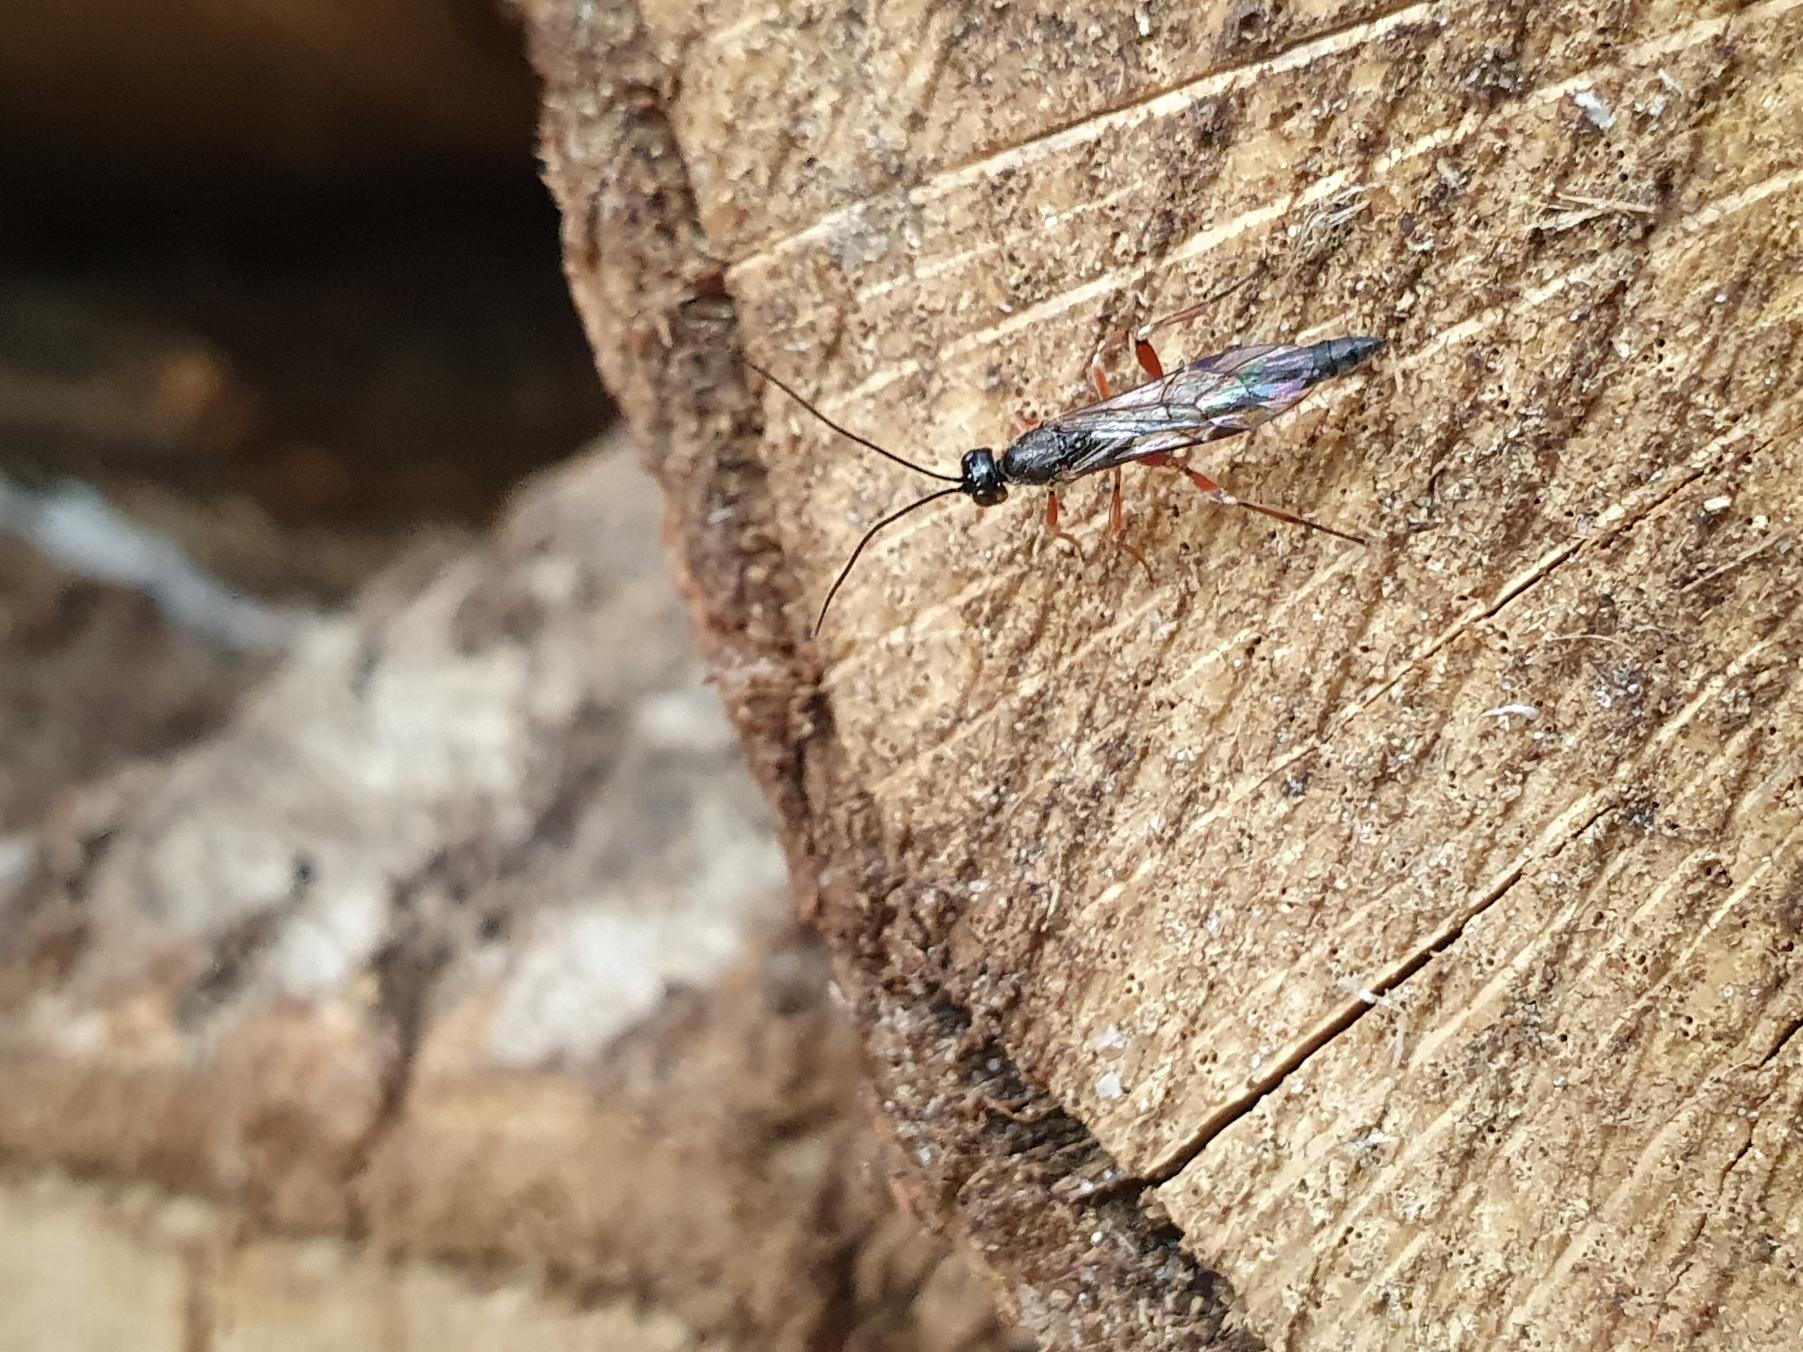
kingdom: Animalia
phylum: Arthropoda
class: Insecta
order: Hymenoptera
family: Ichneumonidae
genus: Xorides
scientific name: Xorides
